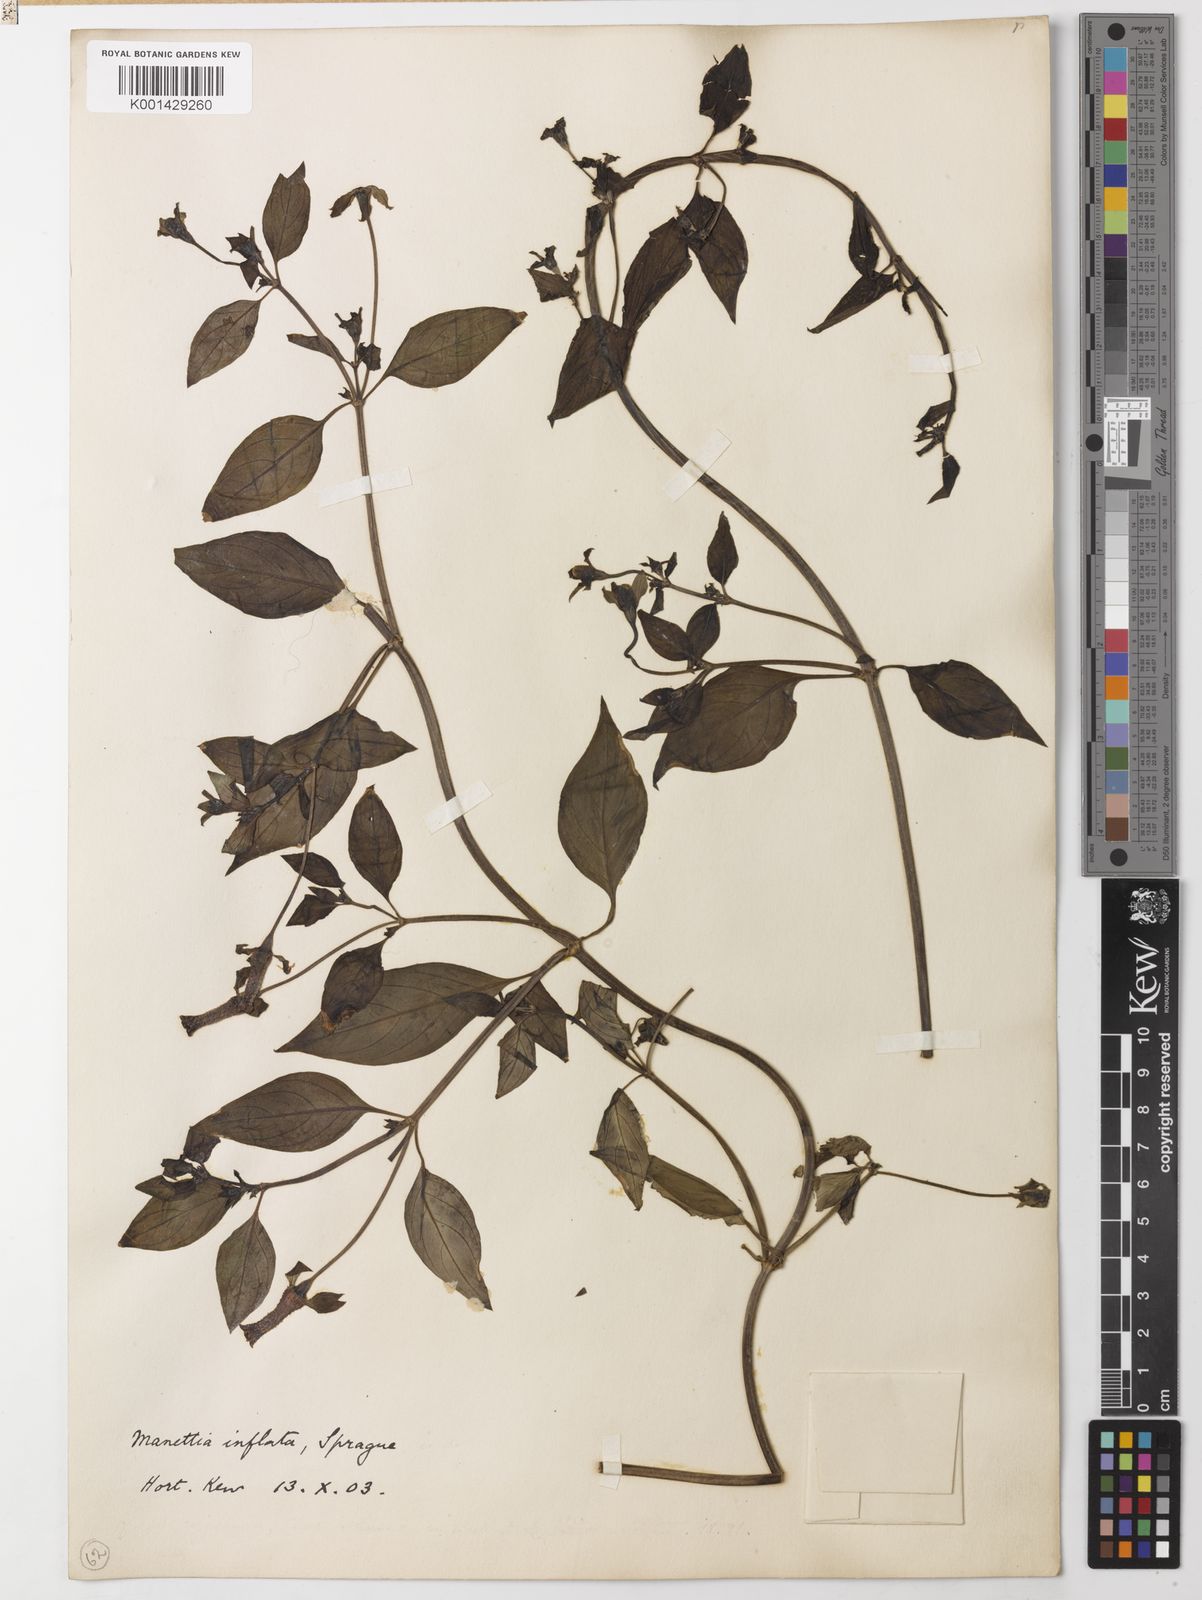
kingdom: Plantae
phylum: Tracheophyta
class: Magnoliopsida
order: Gentianales
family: Rubiaceae
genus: Manettia
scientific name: Manettia luteorubra
